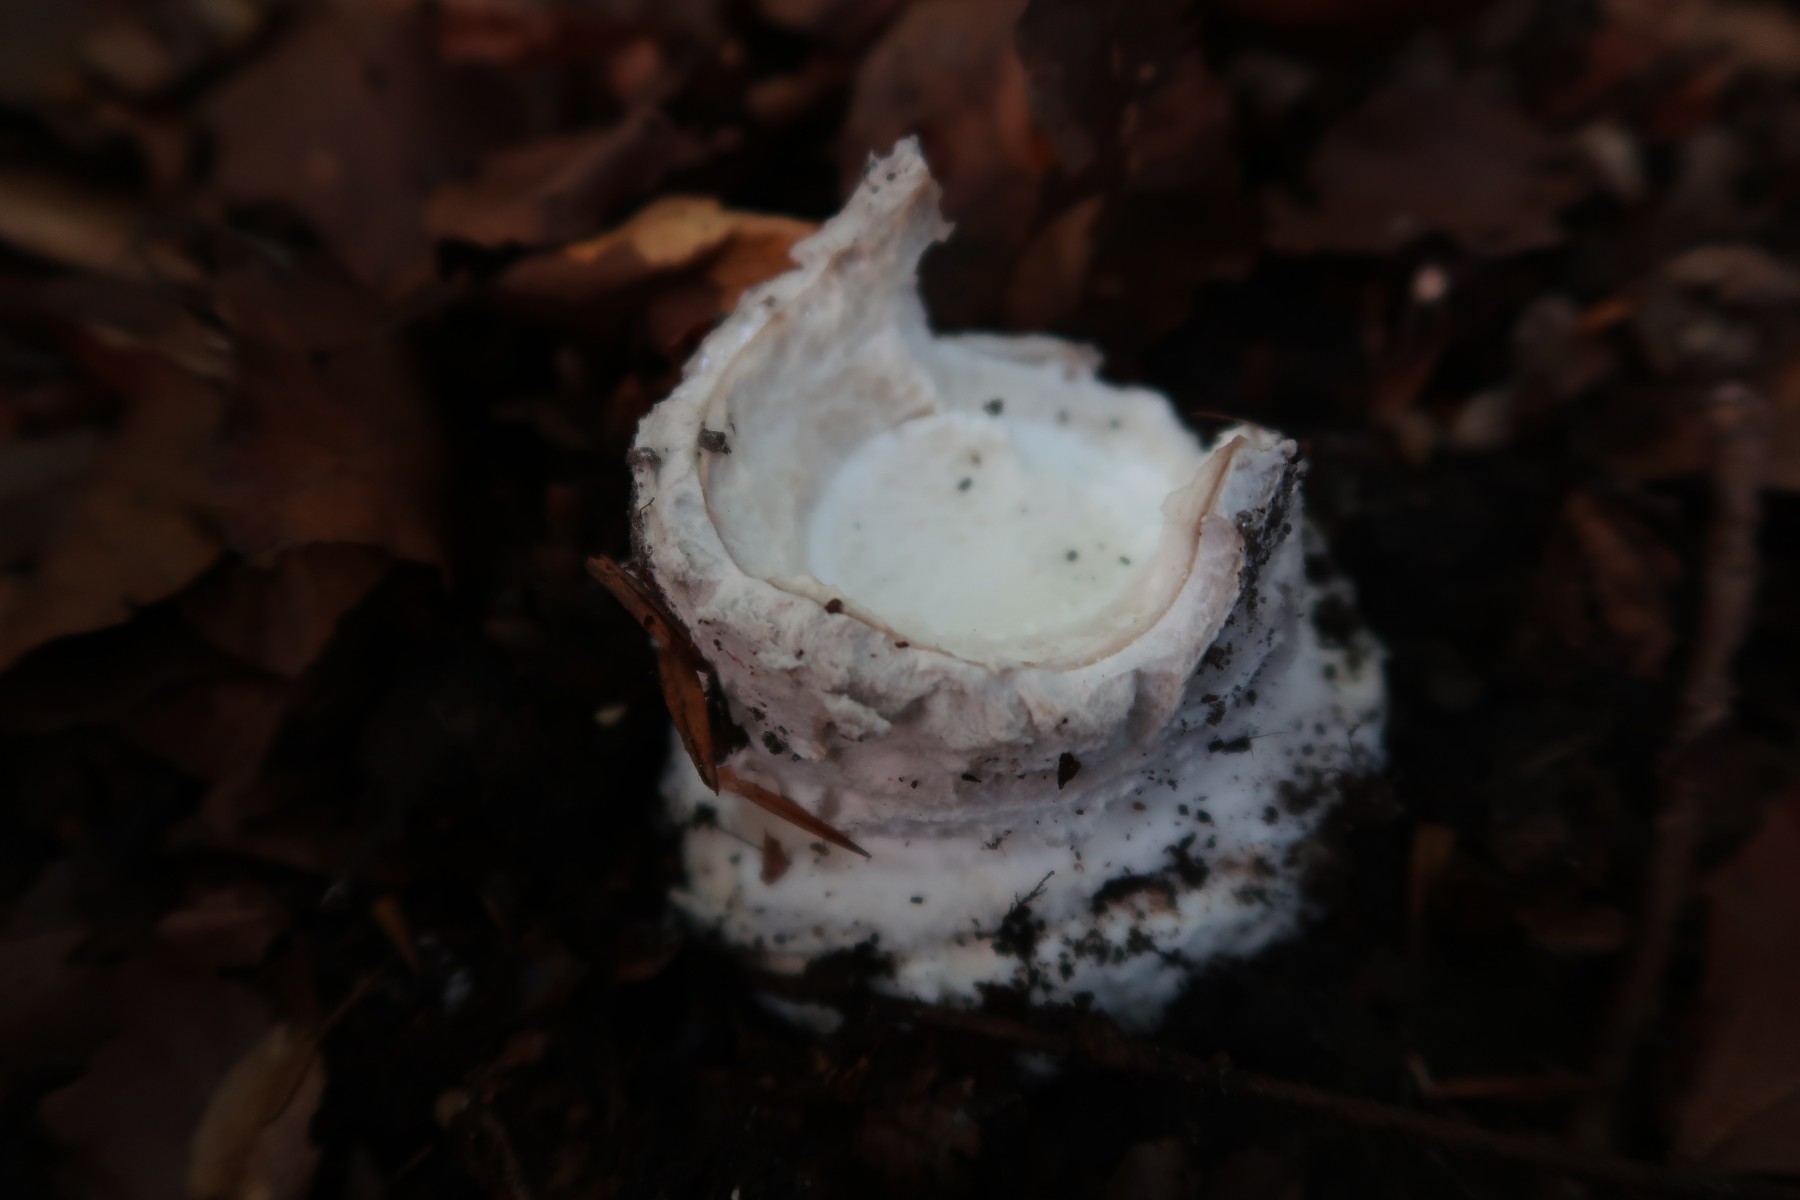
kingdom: Fungi
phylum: Basidiomycota
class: Agaricomycetes
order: Agaricales
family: Amanitaceae
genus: Amanita
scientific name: Amanita
